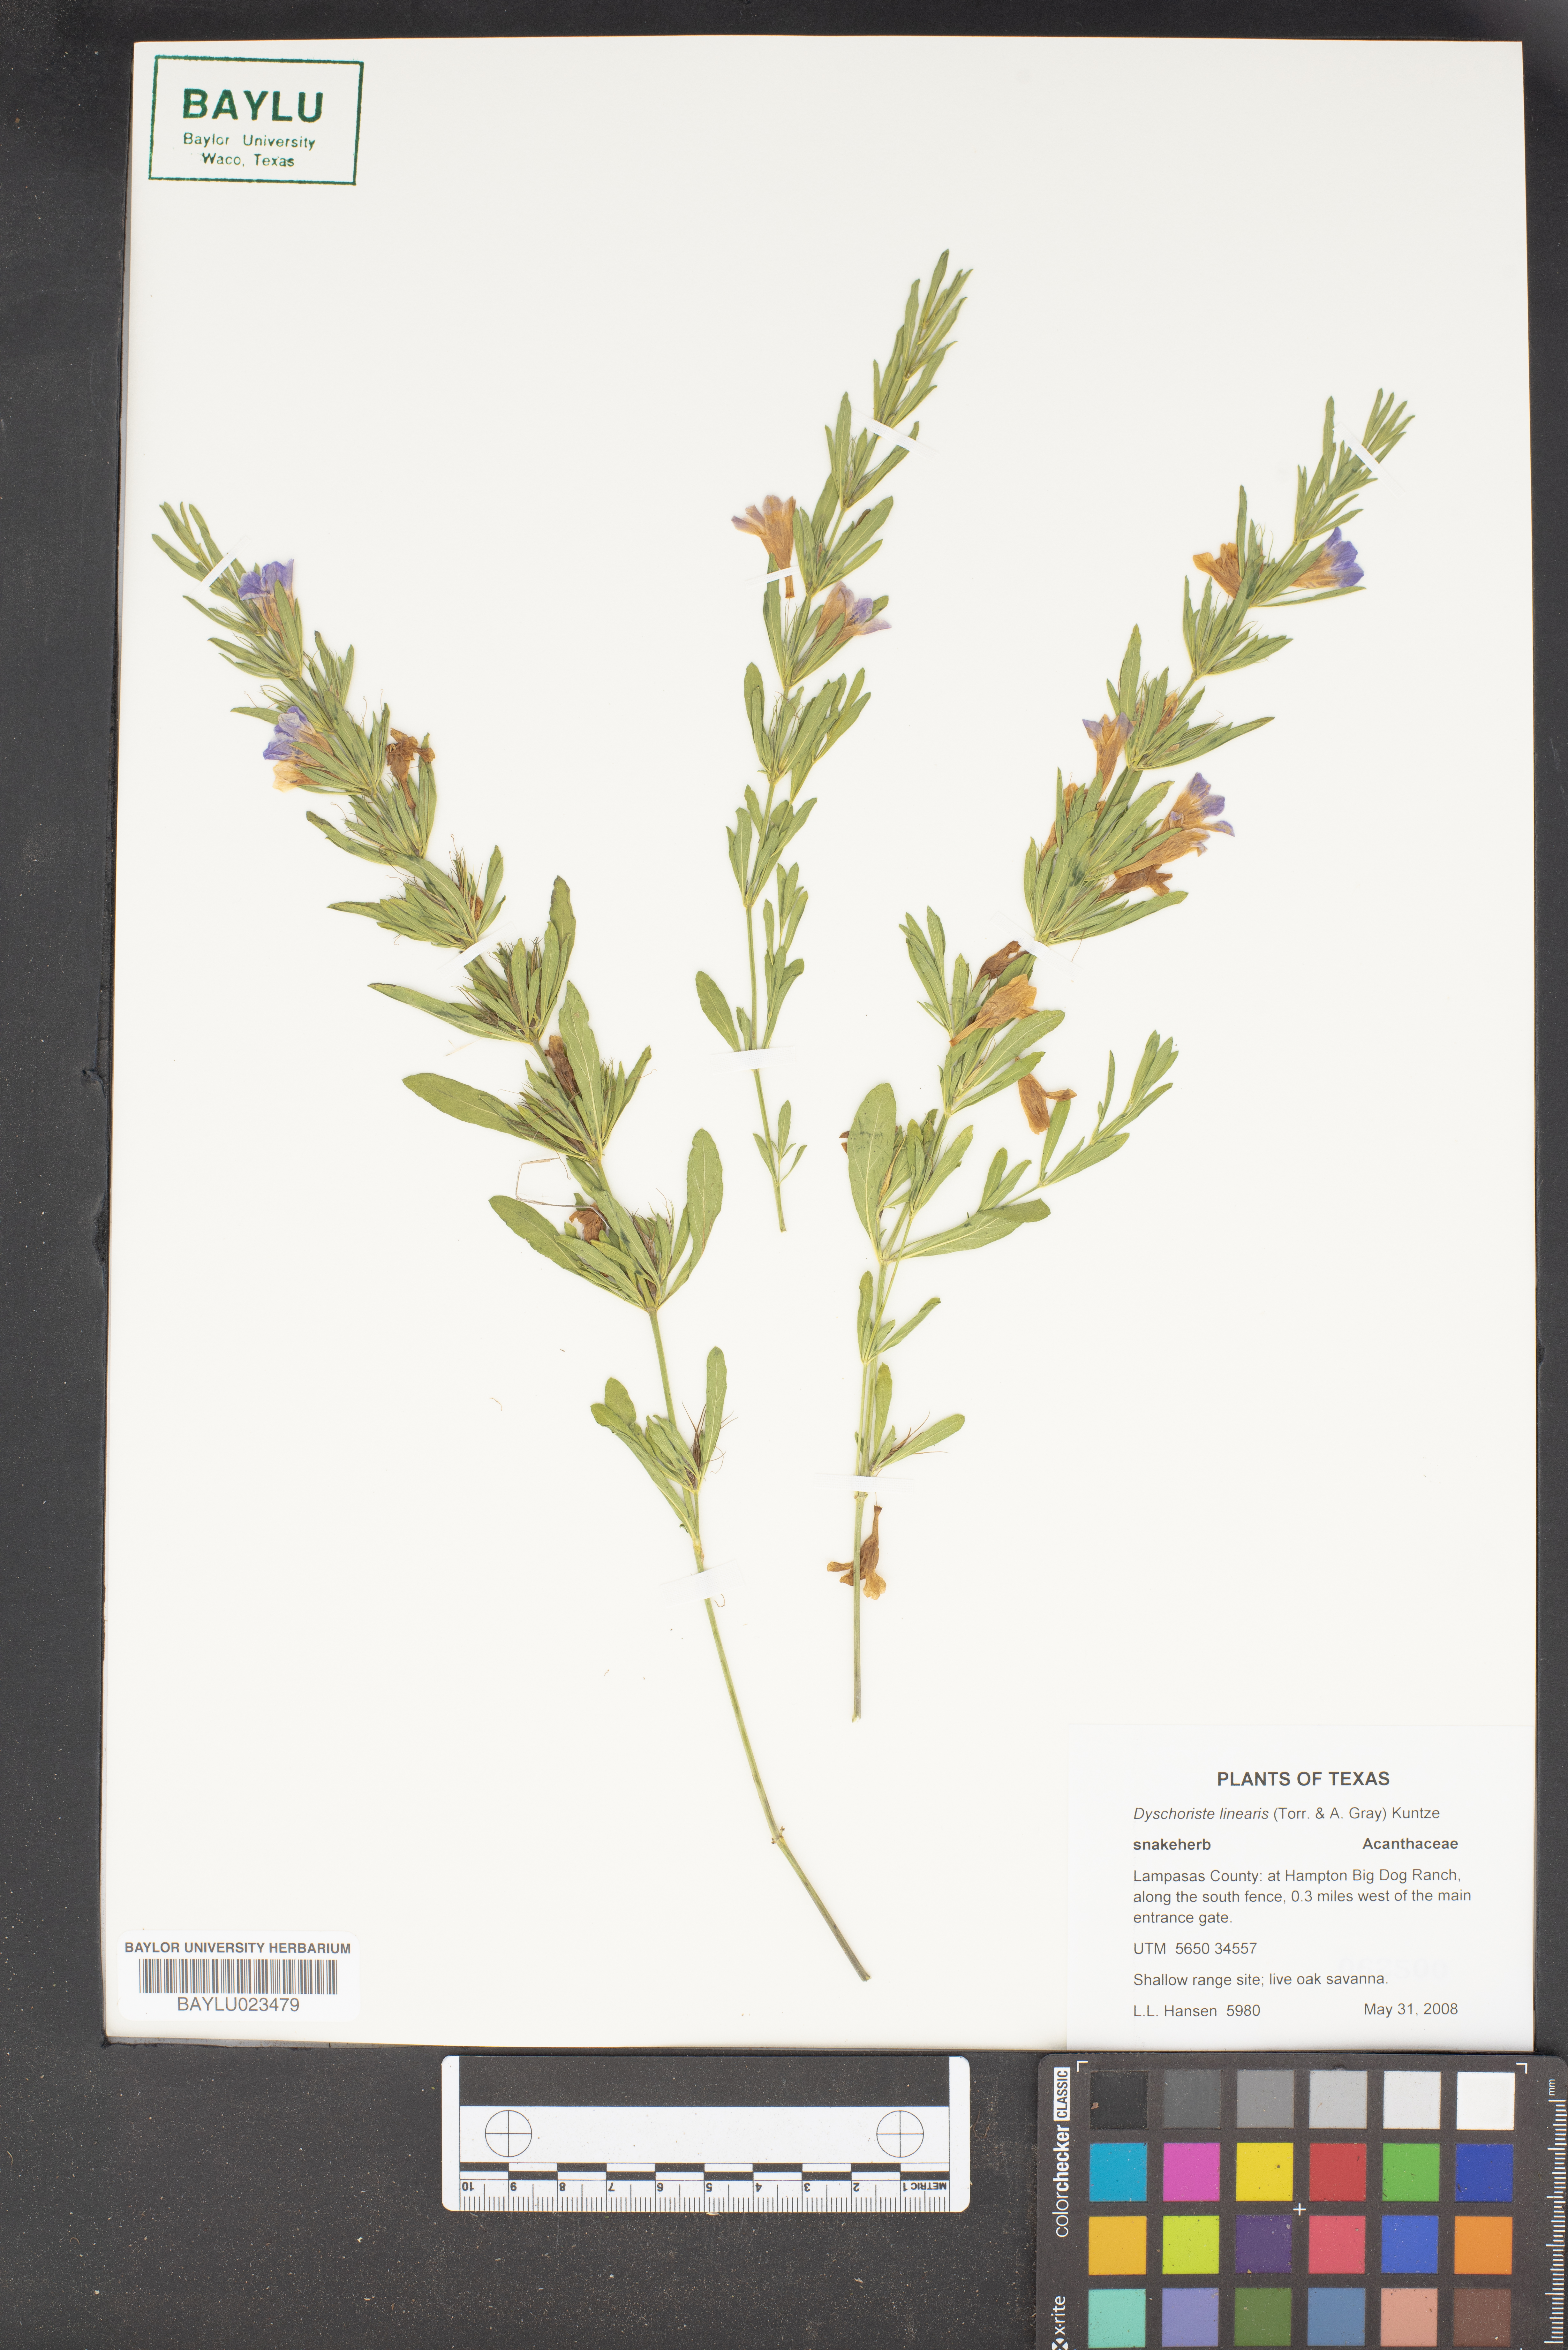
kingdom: Plantae
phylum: Tracheophyta
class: Magnoliopsida
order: Lamiales
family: Acanthaceae
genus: Dyschoriste
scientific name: Dyschoriste linearis
